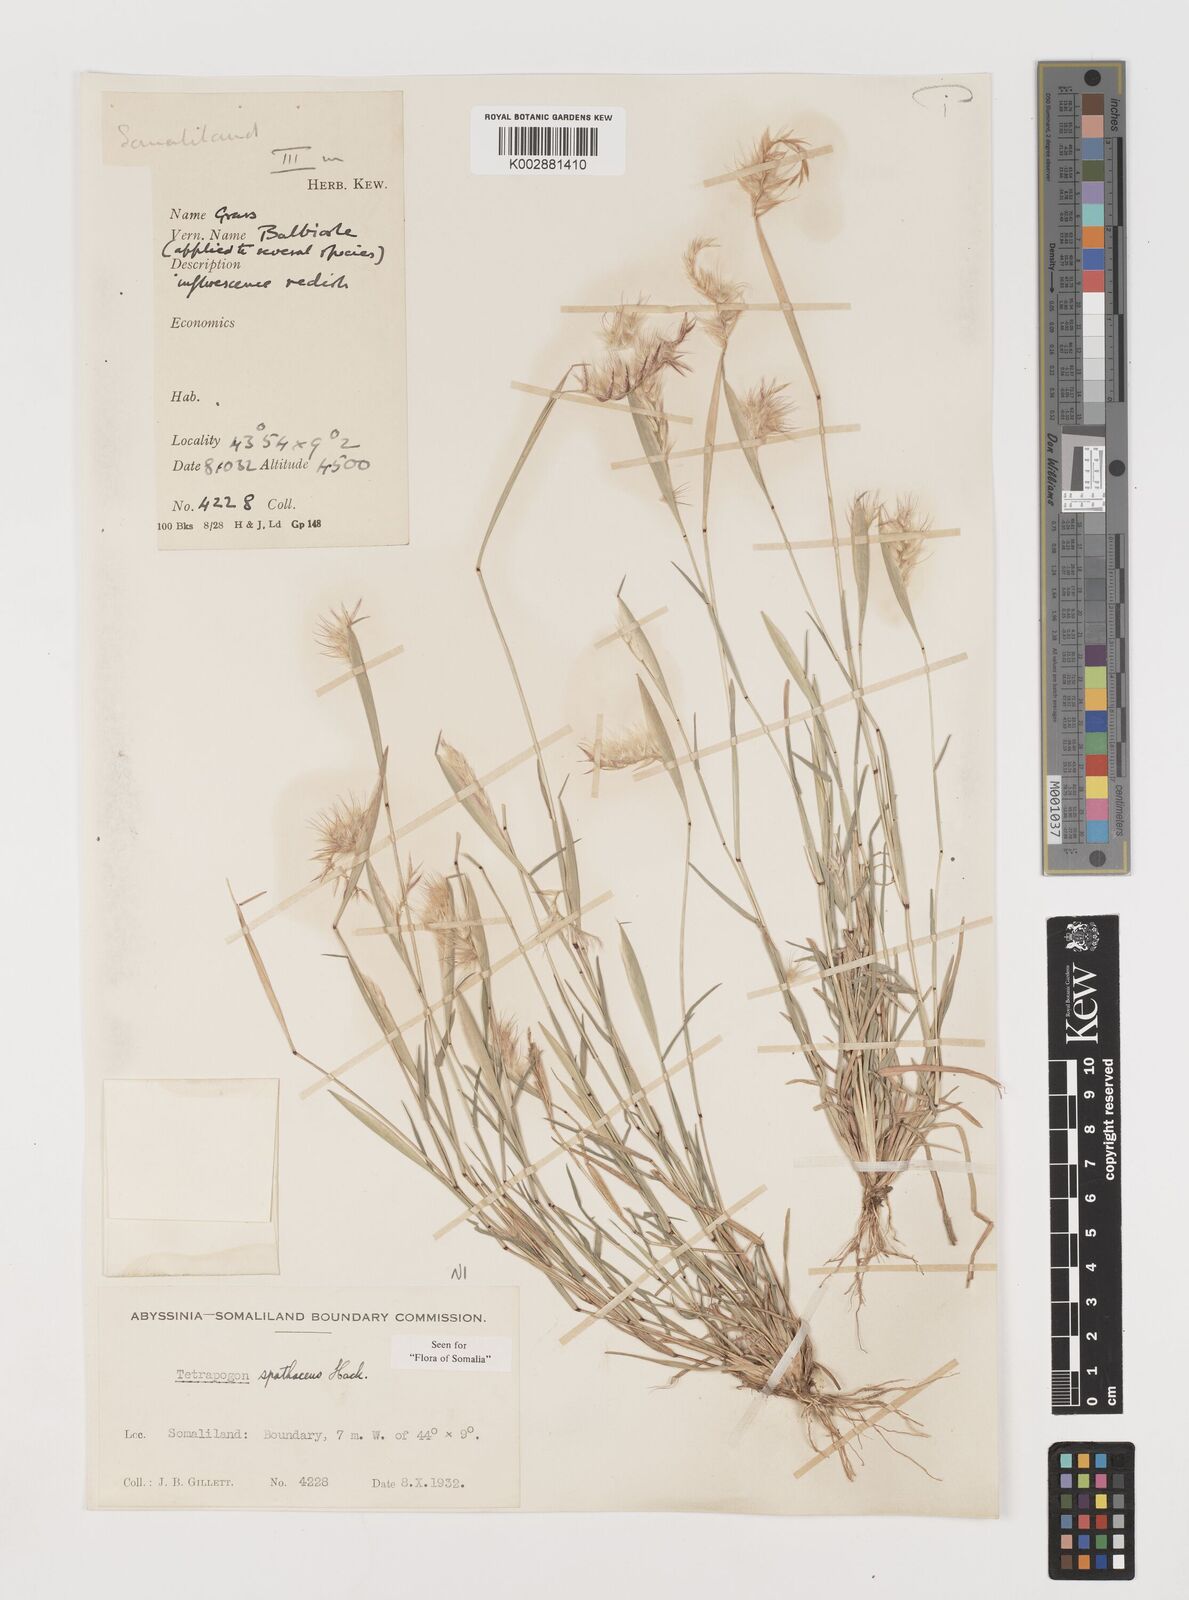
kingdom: Plantae
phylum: Tracheophyta
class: Liliopsida
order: Poales
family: Poaceae
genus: Tetrapogon
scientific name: Tetrapogon cenchriformis
